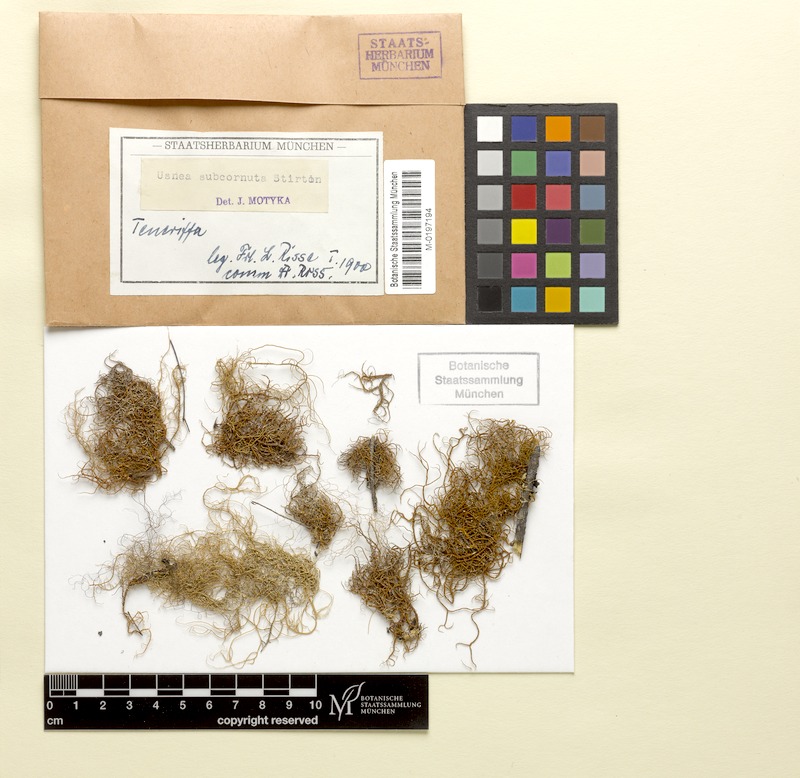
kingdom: Fungi
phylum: Ascomycota
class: Lecanoromycetes
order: Lecanorales
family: Parmeliaceae
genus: Usnea
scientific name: Usnea subcornuta
